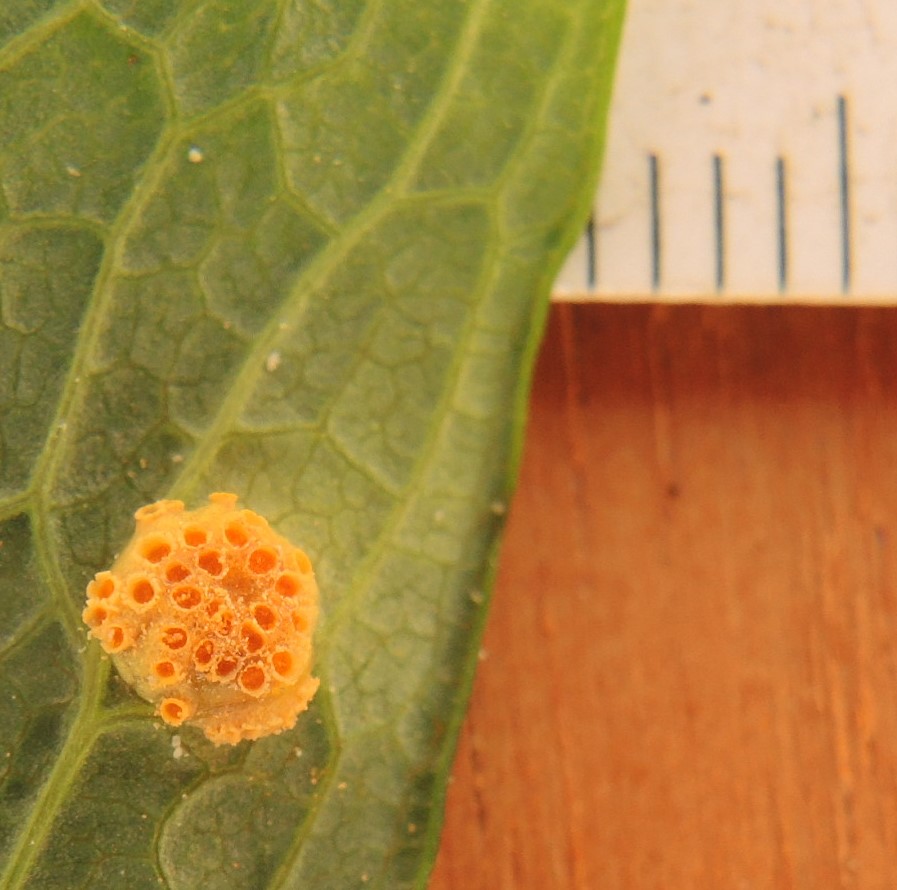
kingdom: Fungi
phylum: Basidiomycota
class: Pucciniomycetes
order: Pucciniales
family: Pucciniaceae
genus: Puccinia
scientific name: Puccinia recondita
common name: Brown rust of wheat
